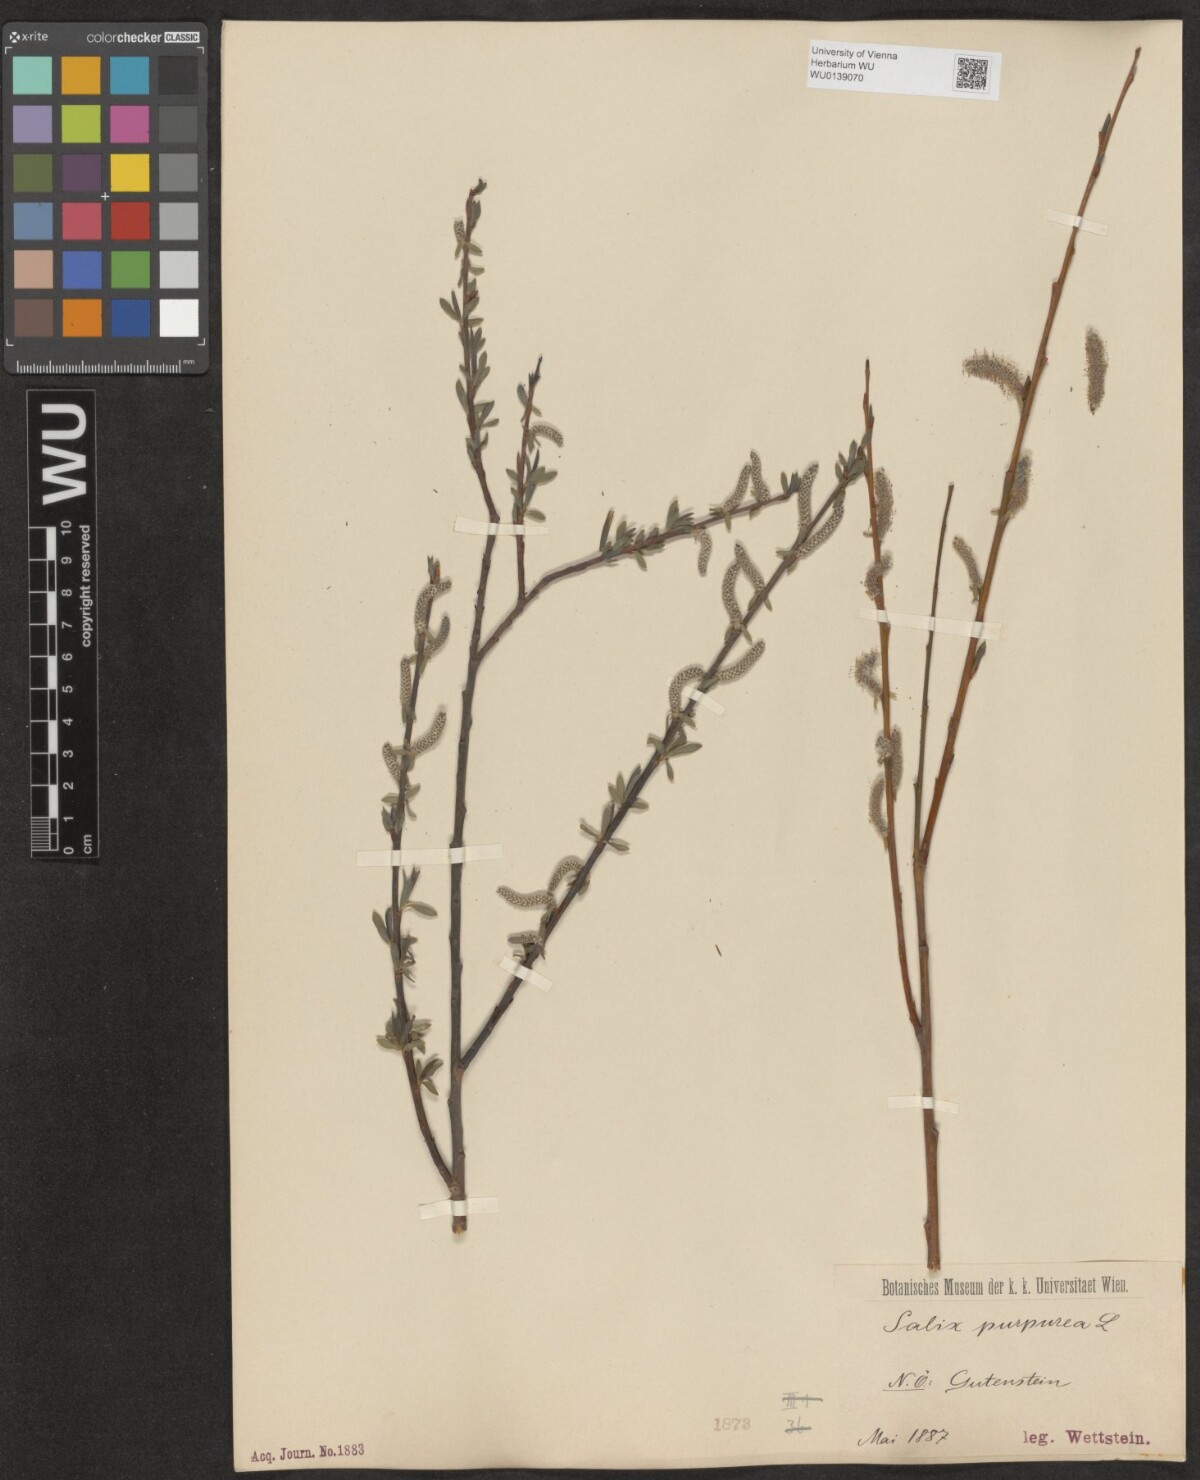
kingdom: Plantae
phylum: Tracheophyta
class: Magnoliopsida
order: Malpighiales
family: Salicaceae
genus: Salix
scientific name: Salix purpurea
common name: Purple willow
